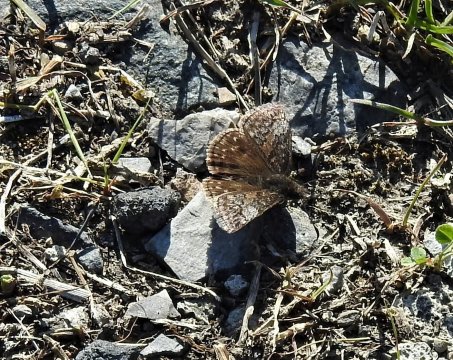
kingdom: Animalia
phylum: Arthropoda
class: Insecta
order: Lepidoptera
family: Hesperiidae
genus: Gesta
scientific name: Gesta
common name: Juvenal's Duskywing
